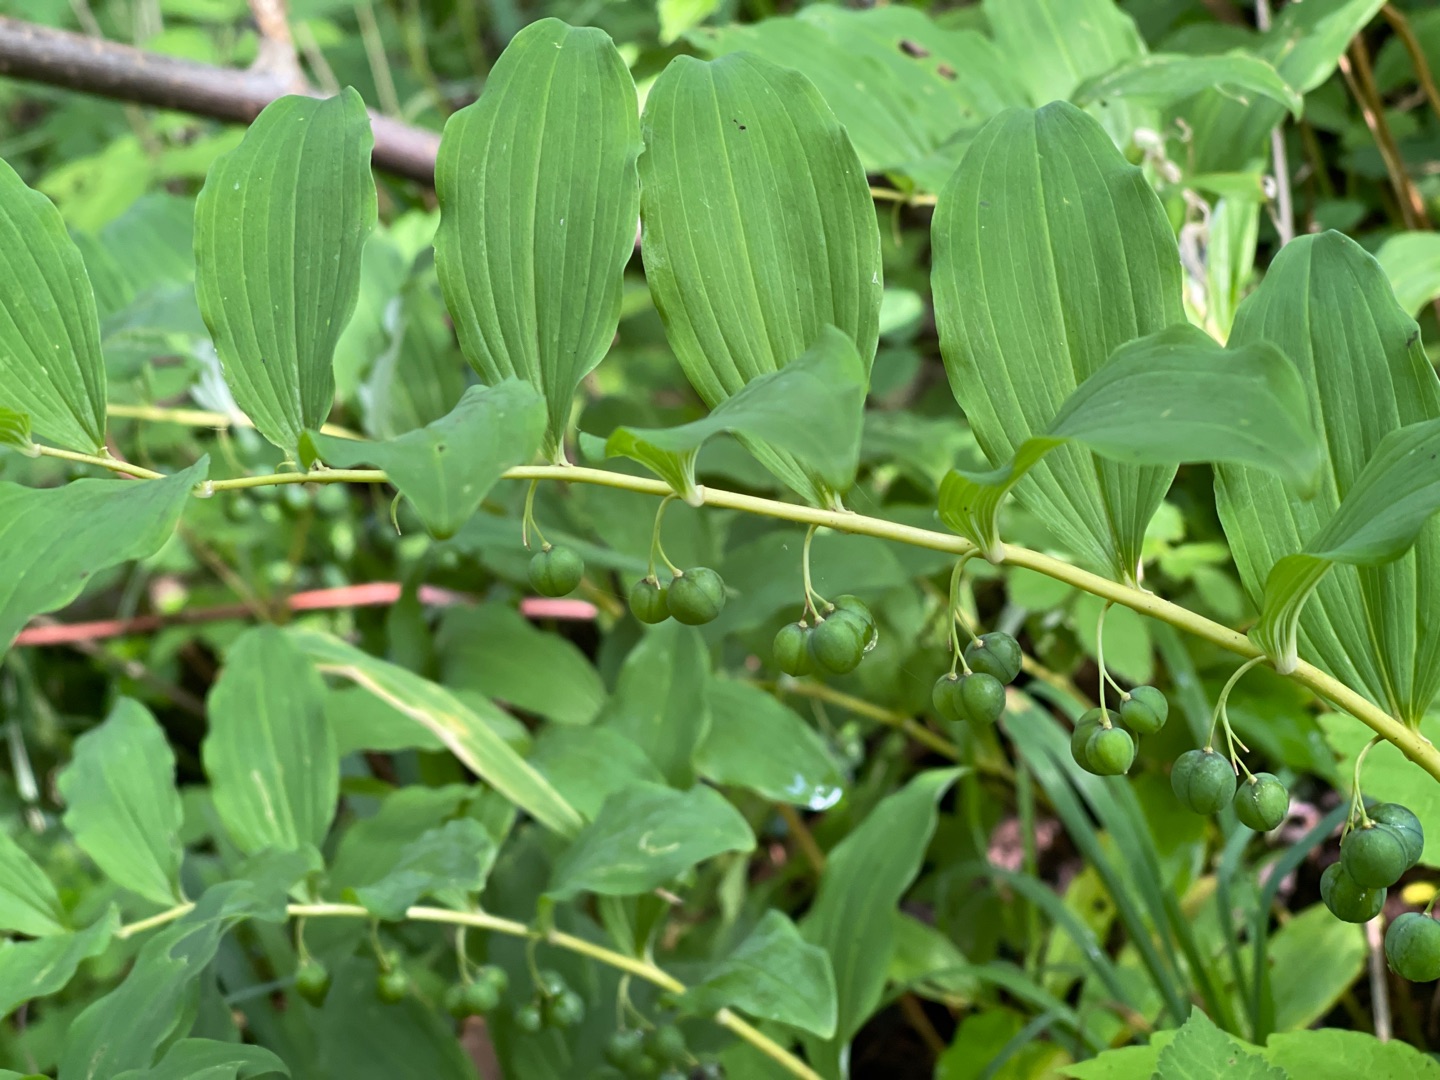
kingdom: Plantae
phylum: Tracheophyta
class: Liliopsida
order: Asparagales
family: Asparagaceae
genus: Polygonatum
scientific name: Polygonatum multiflorum
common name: Stor konval
